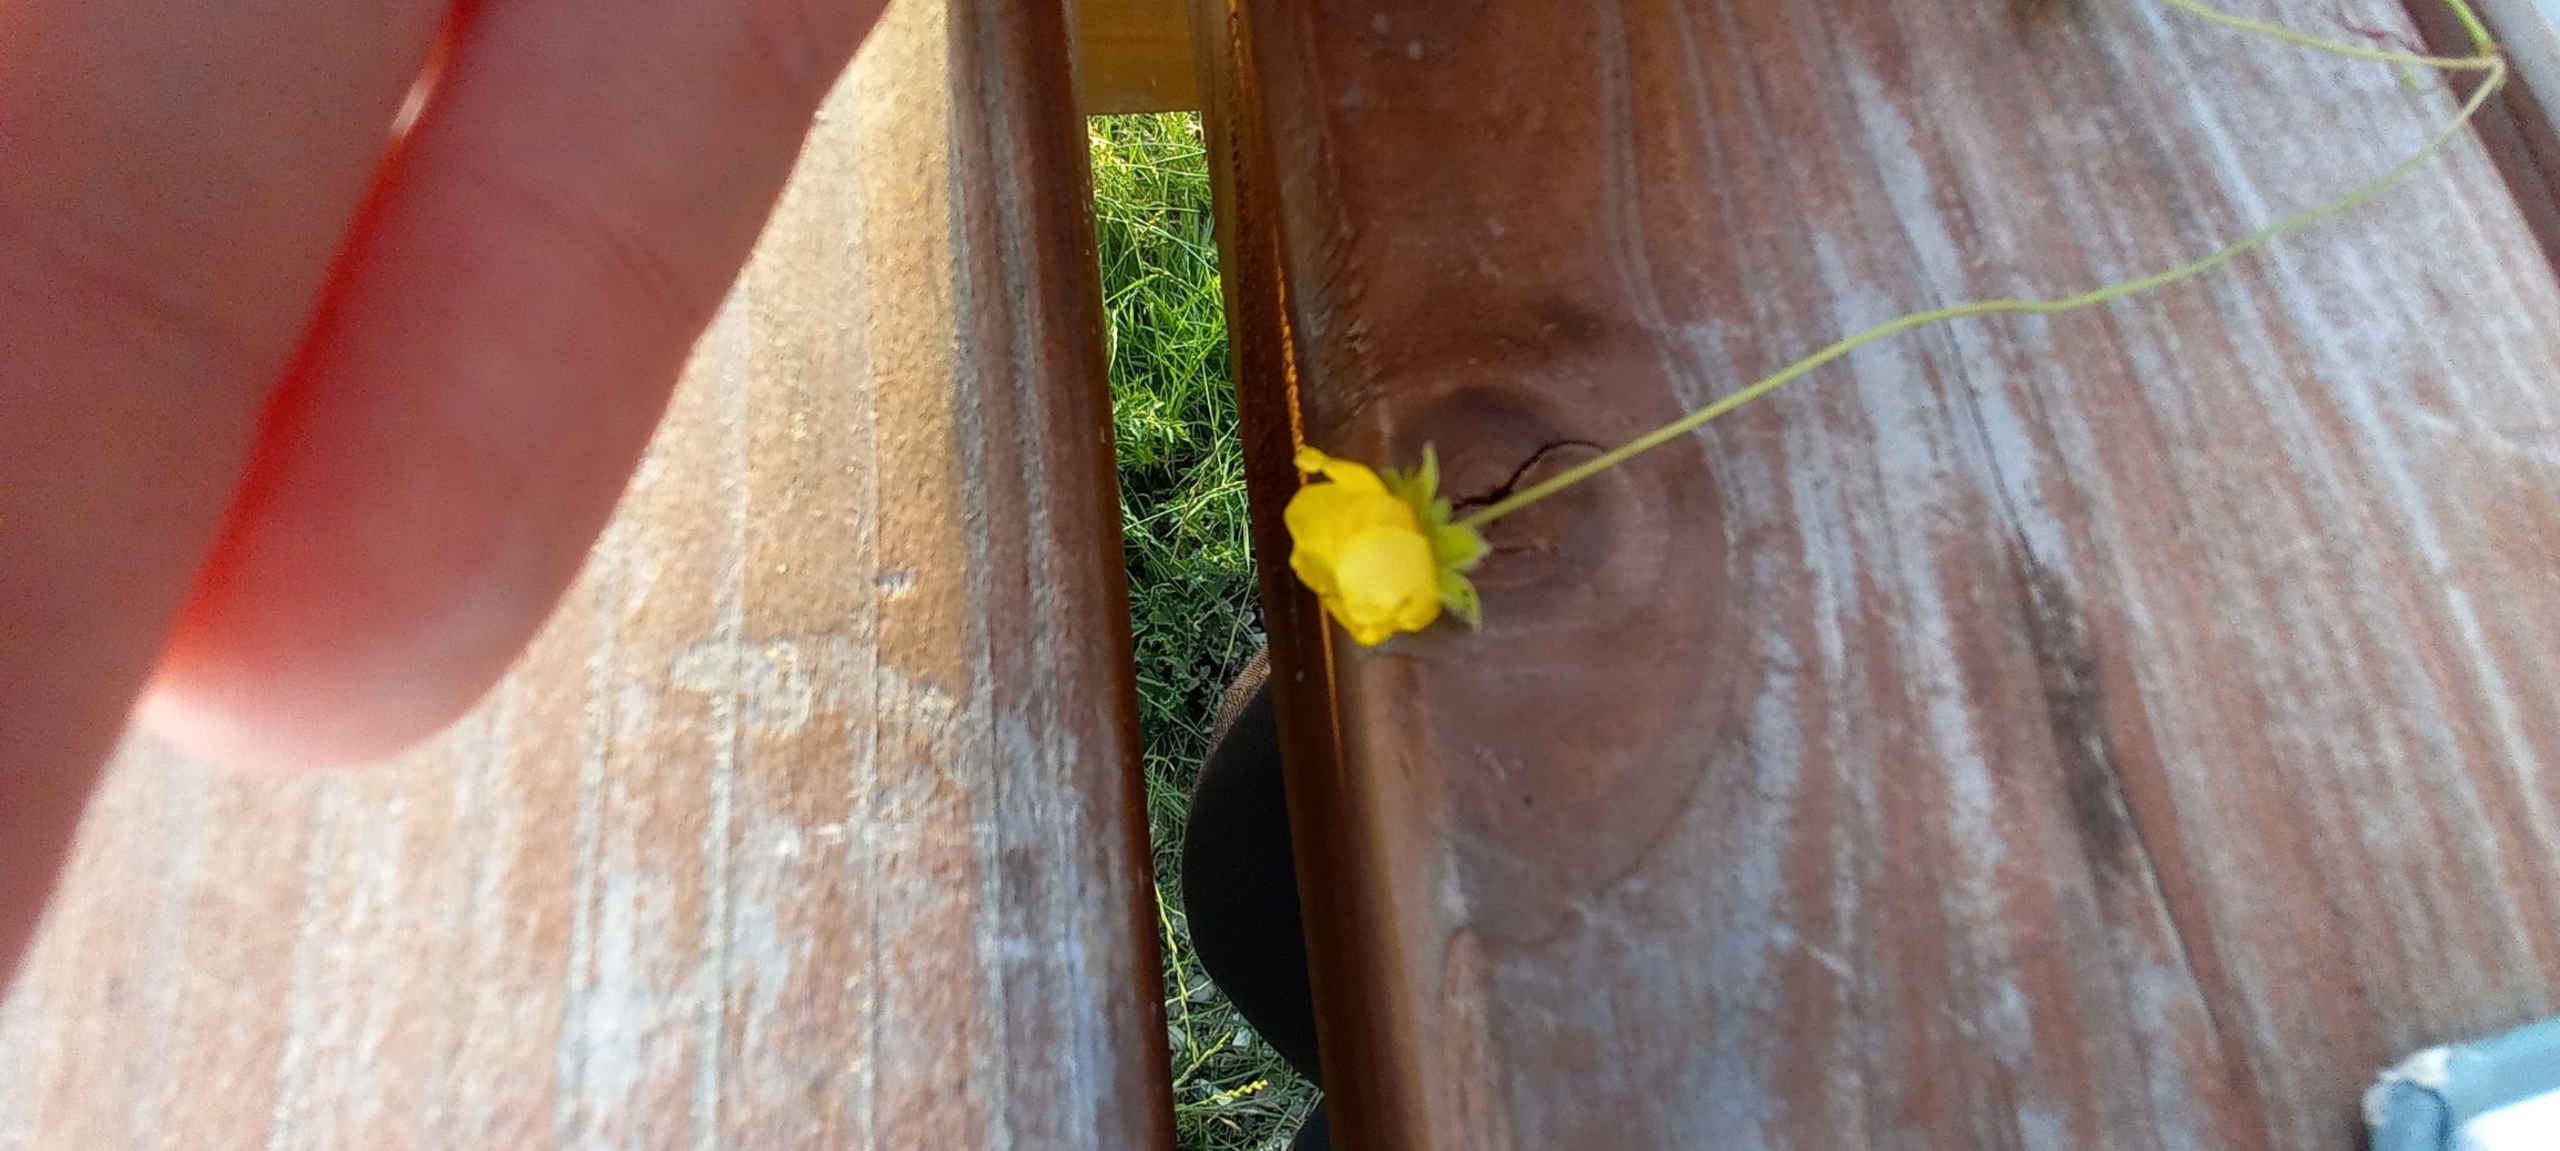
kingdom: Plantae
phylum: Tracheophyta
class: Magnoliopsida
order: Rosales
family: Rosaceae
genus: Potentilla
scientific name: Potentilla reptans
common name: Krybende potentil
